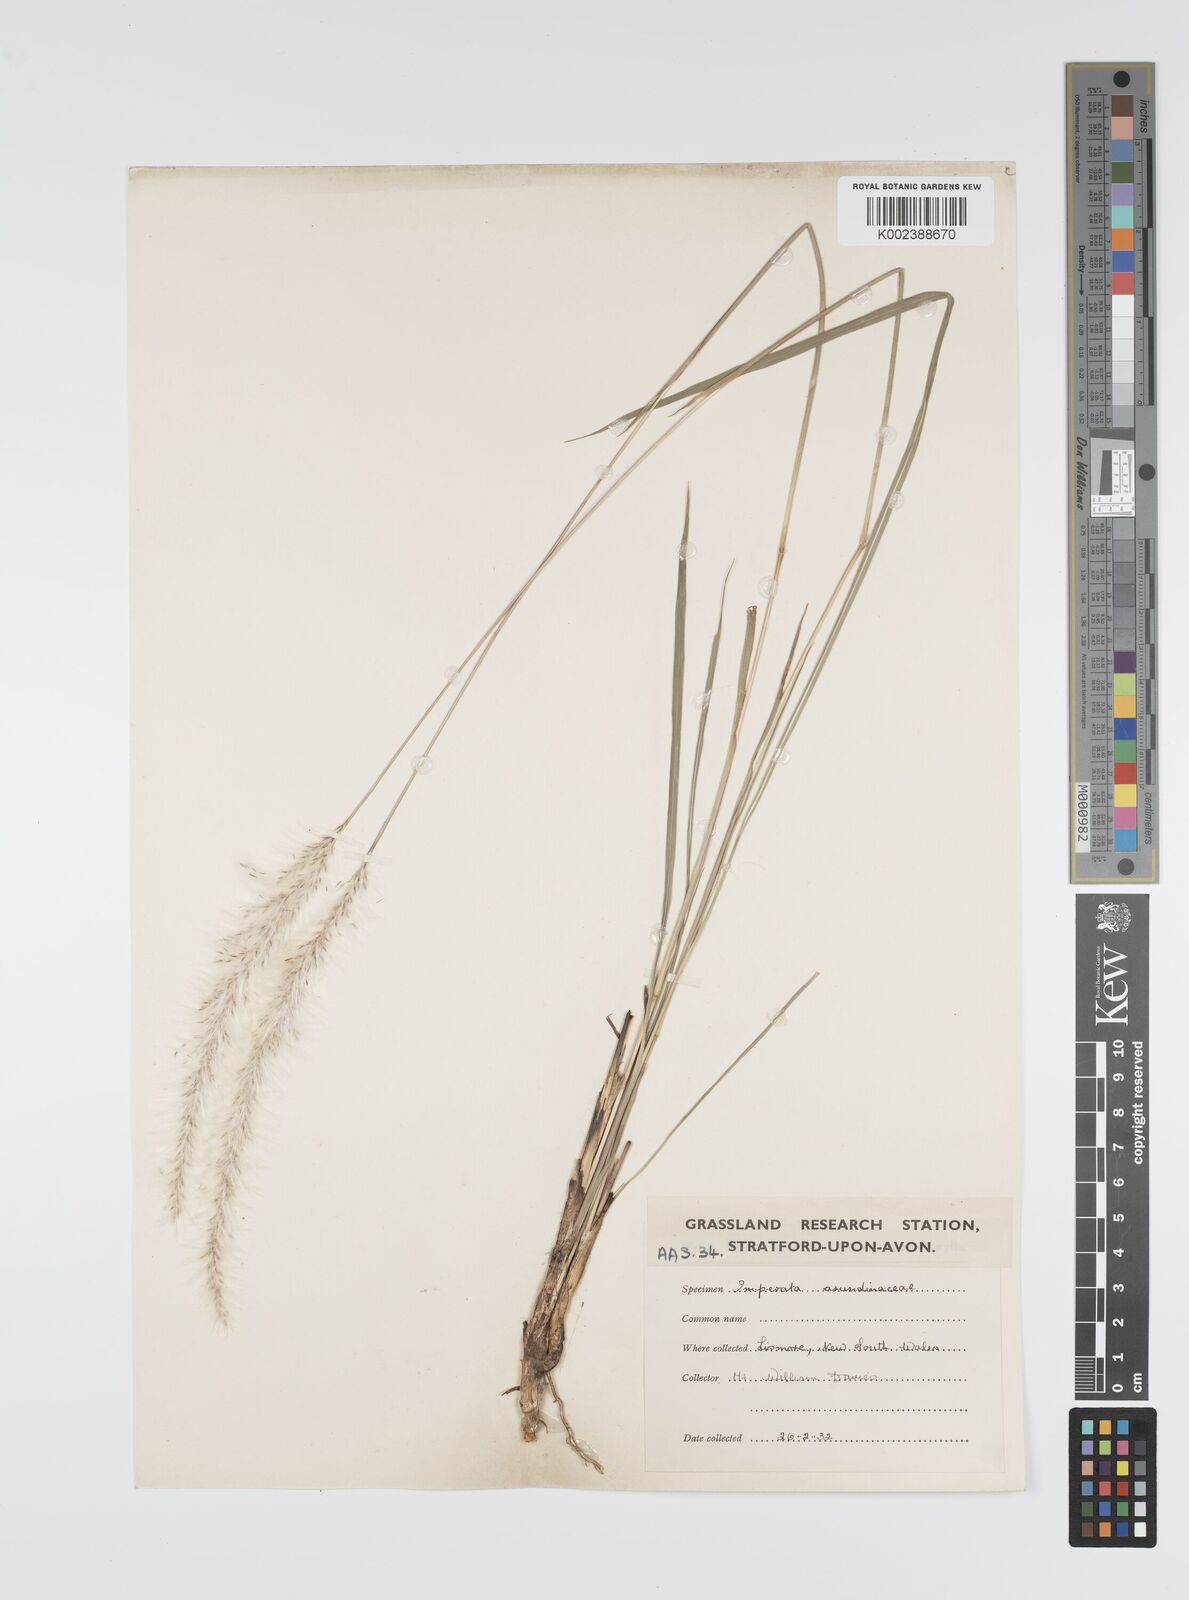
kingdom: Plantae
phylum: Tracheophyta
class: Liliopsida
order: Poales
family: Poaceae
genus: Imperata
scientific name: Imperata cylindrica
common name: Cogongrass
